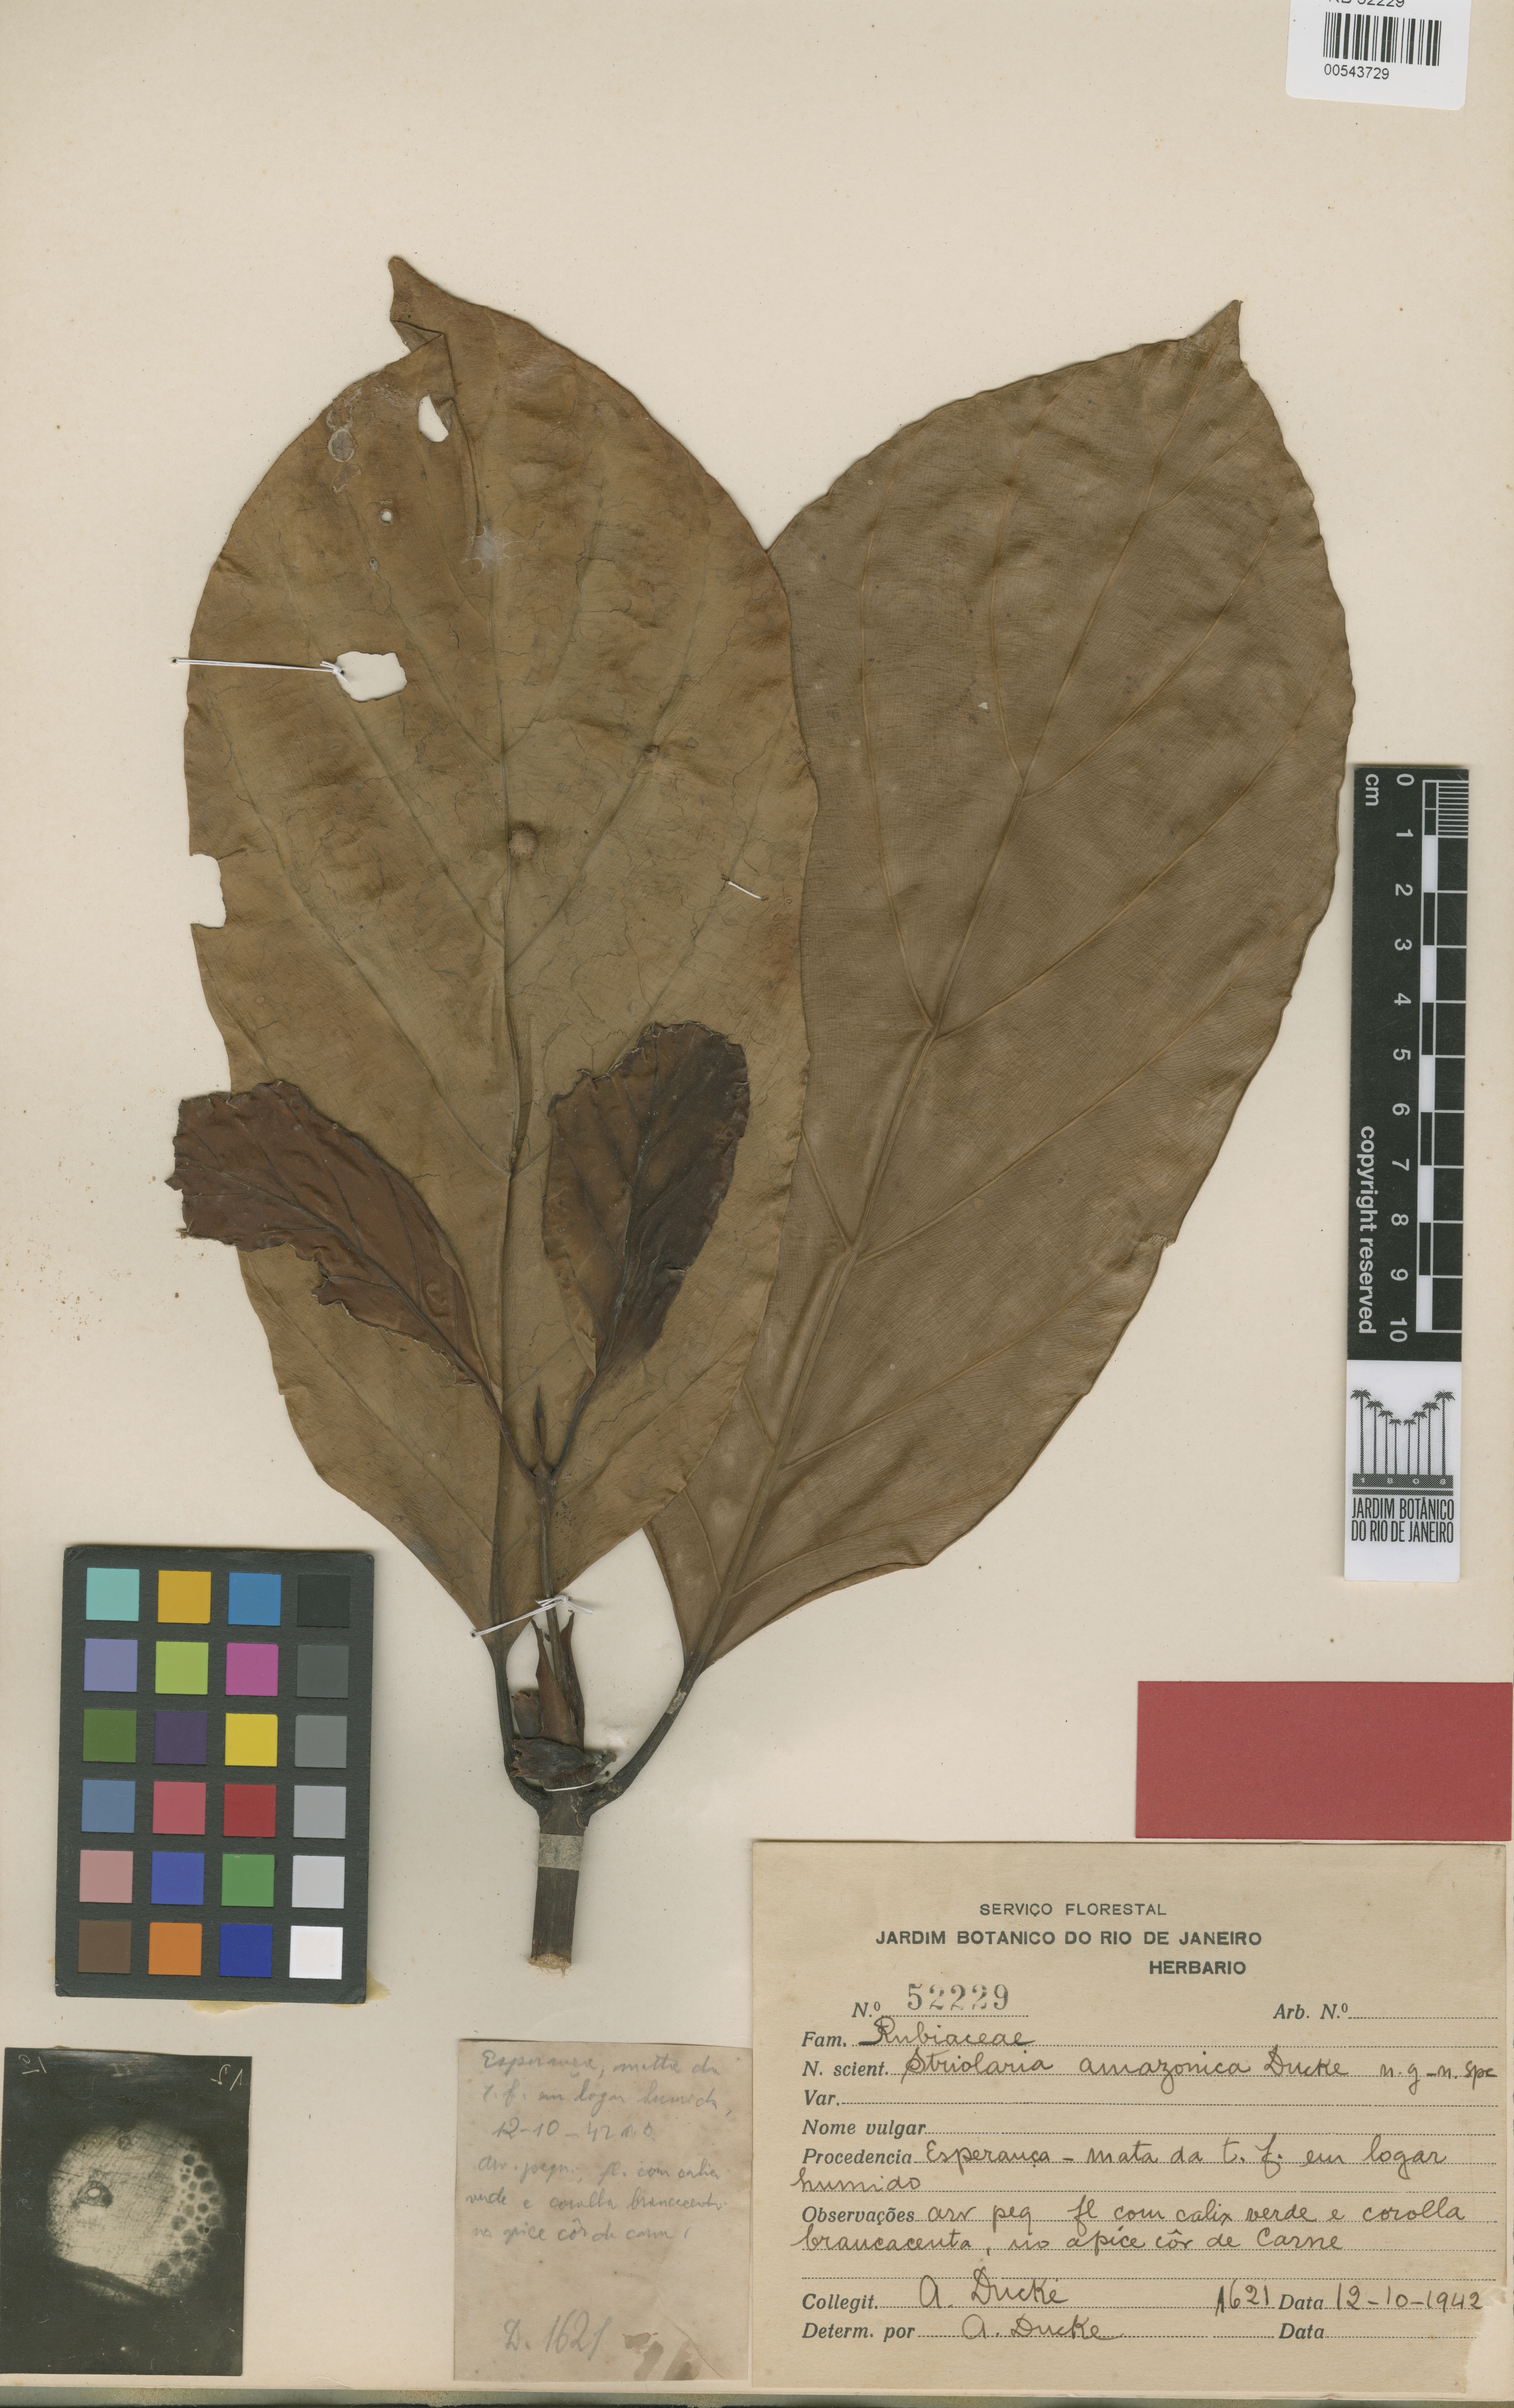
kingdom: Plantae
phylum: Tracheophyta
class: Magnoliopsida
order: Gentianales
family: Rubiaceae
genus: Pentagonia
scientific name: Pentagonia amazonica
